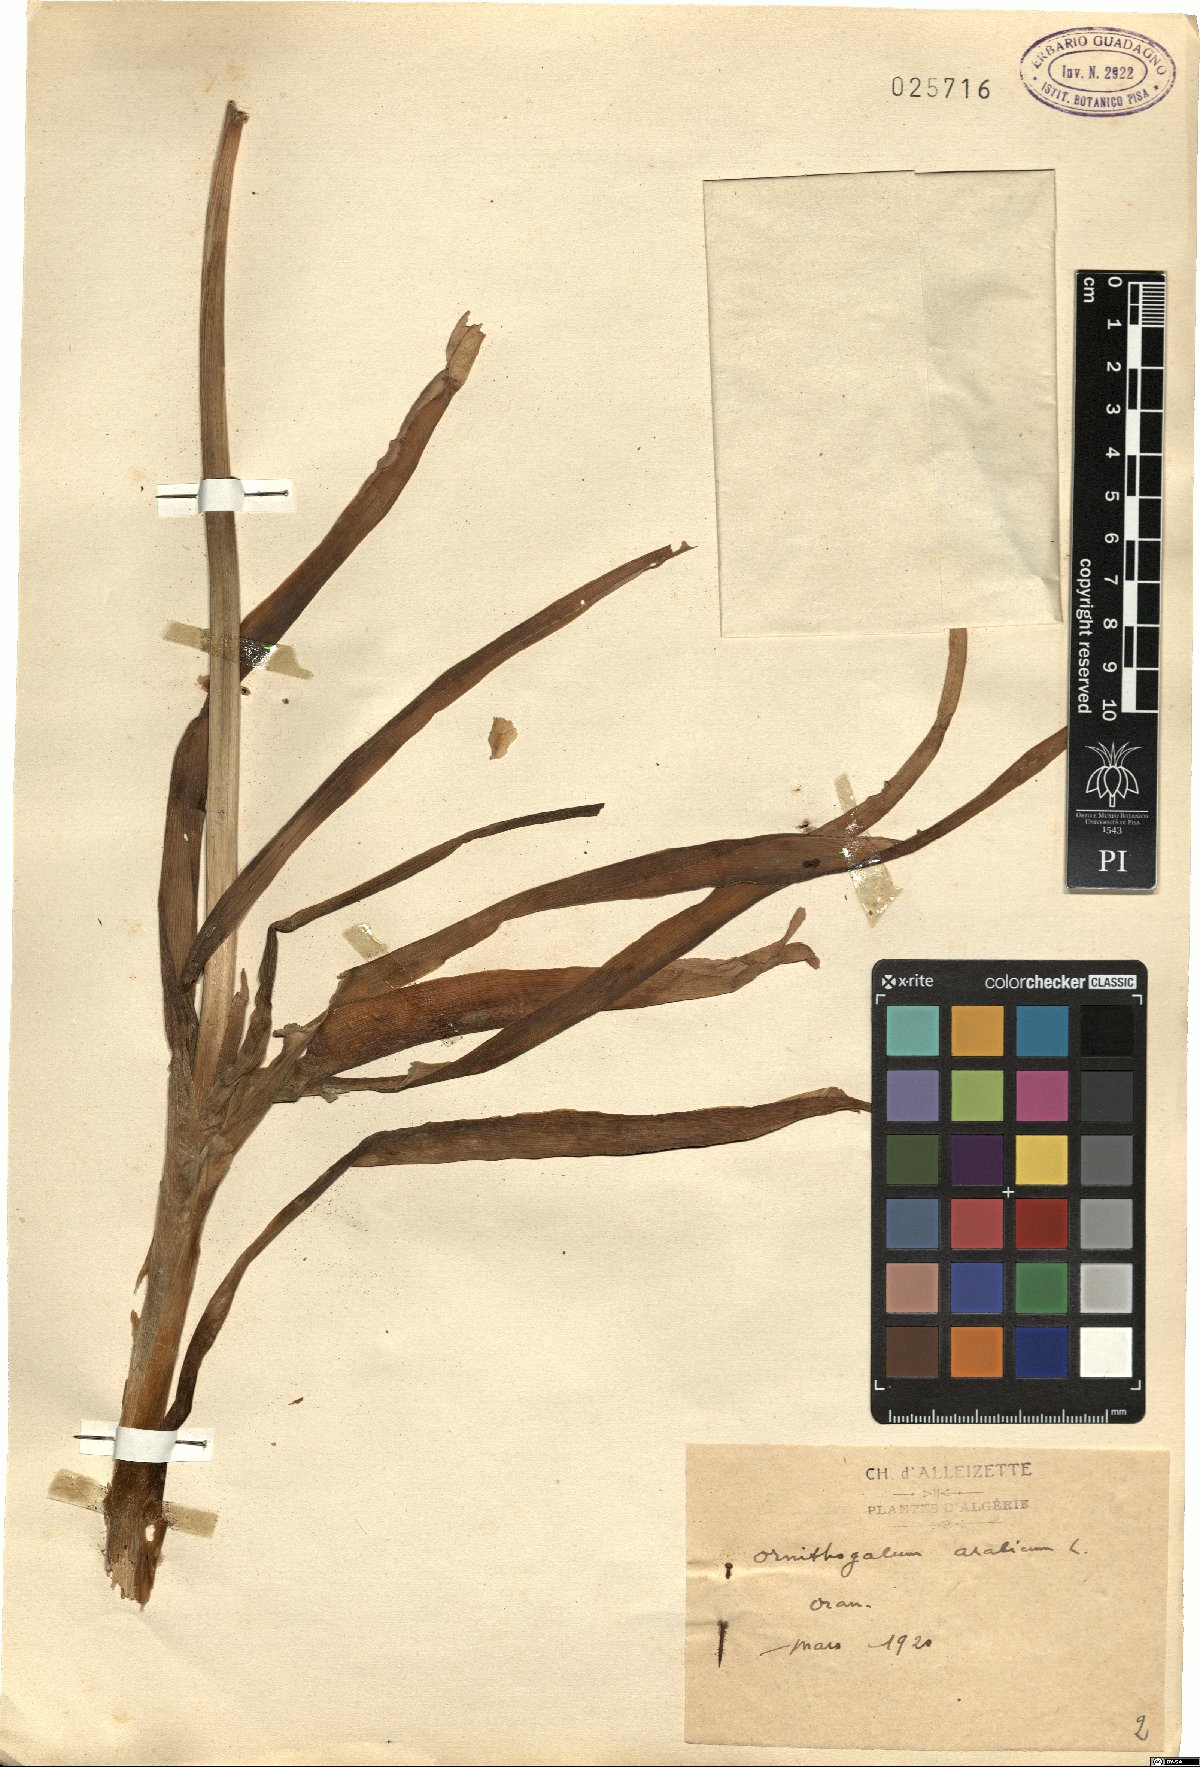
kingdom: Plantae
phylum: Tracheophyta
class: Liliopsida
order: Asparagales
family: Asparagaceae
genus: Ornithogalum
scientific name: Ornithogalum arabicum
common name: Arabian starflower
